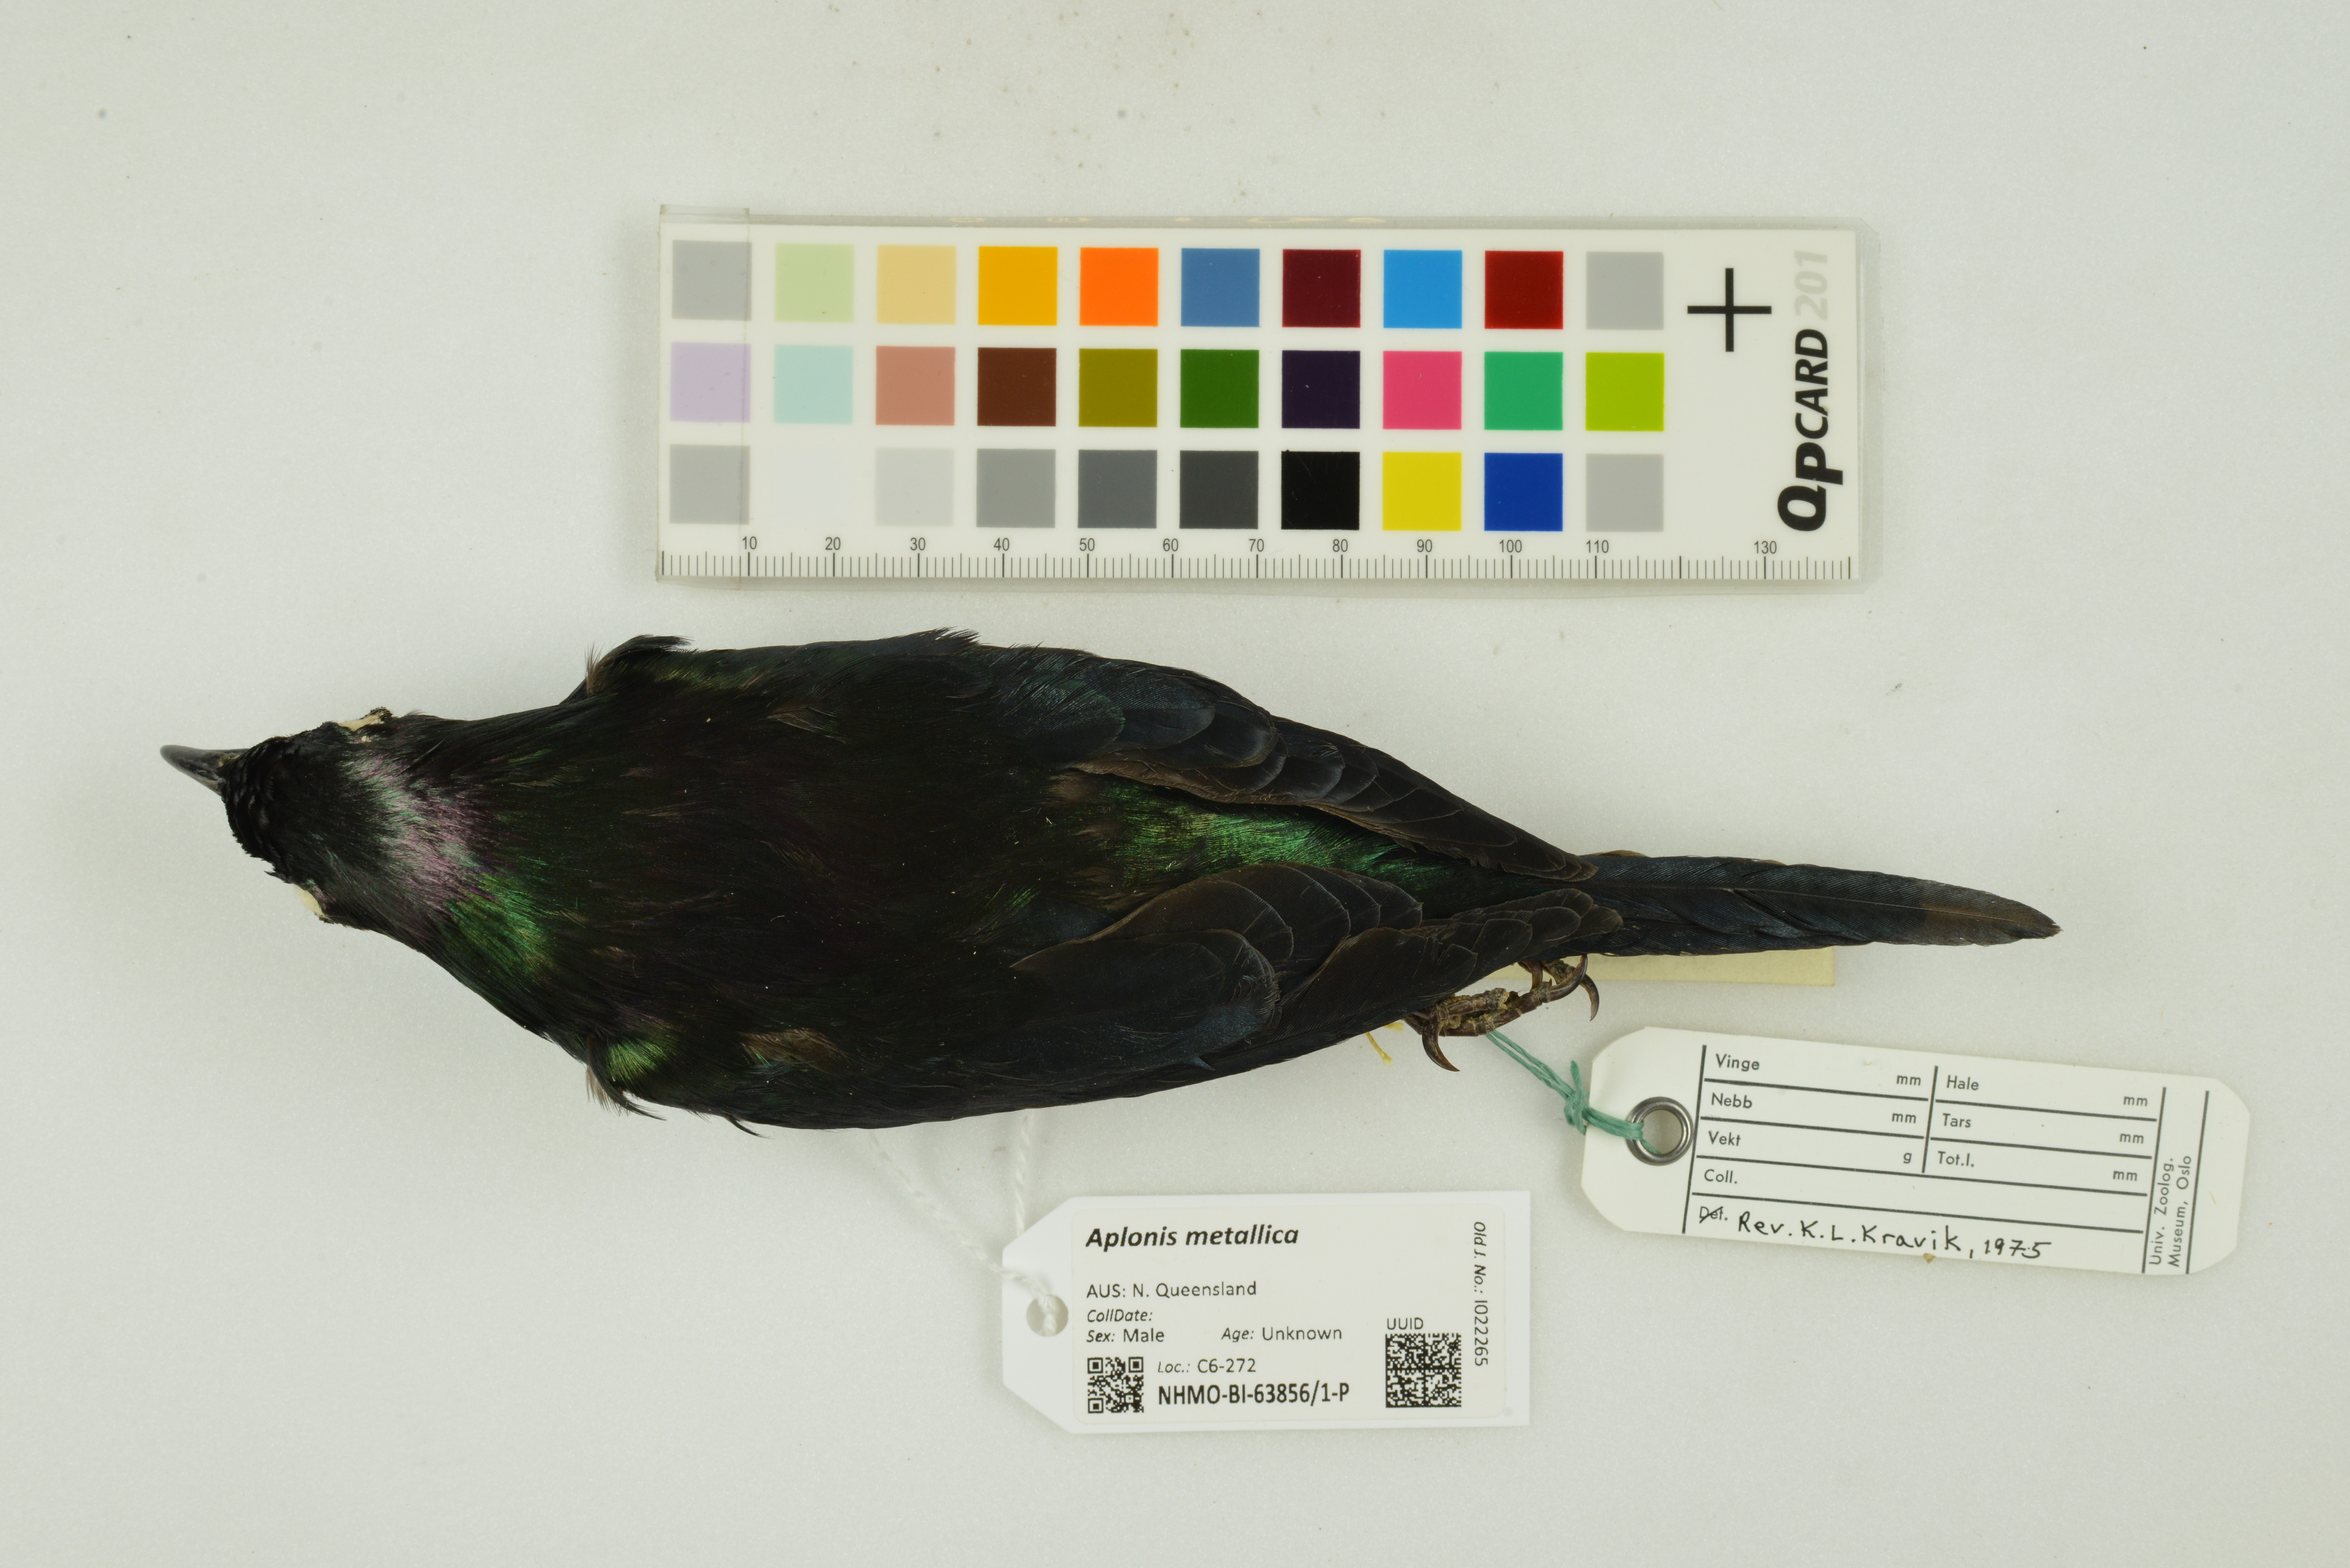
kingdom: Animalia
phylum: Chordata
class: Aves
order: Passeriformes
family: Sturnidae
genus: Aplonis
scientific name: Aplonis metallica
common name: Metallic starling
